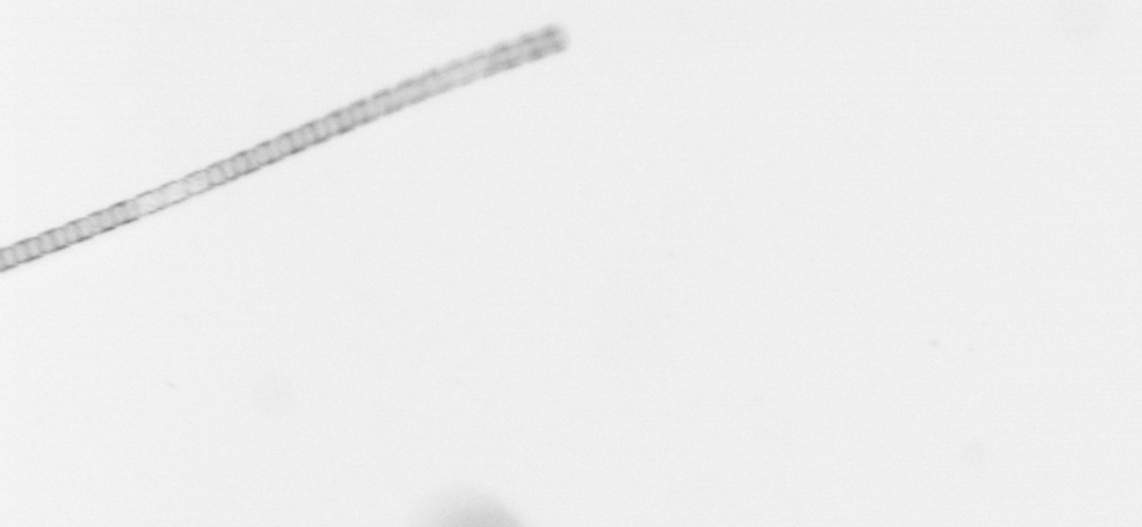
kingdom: Chromista
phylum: Ochrophyta
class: Bacillariophyceae
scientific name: Bacillariophyceae
